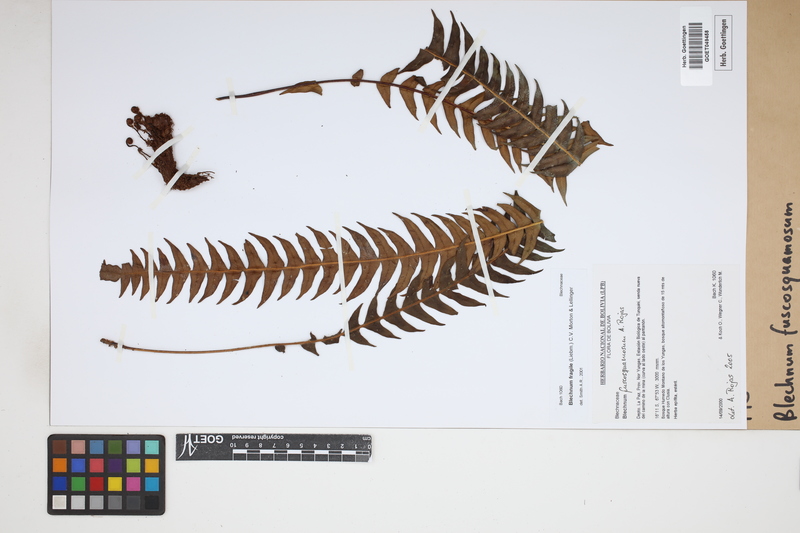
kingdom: Plantae
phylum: Tracheophyta
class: Polypodiopsida
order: Polypodiales
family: Blechnaceae
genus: Lomaridium
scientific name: Lomaridium fuscosquamosum
